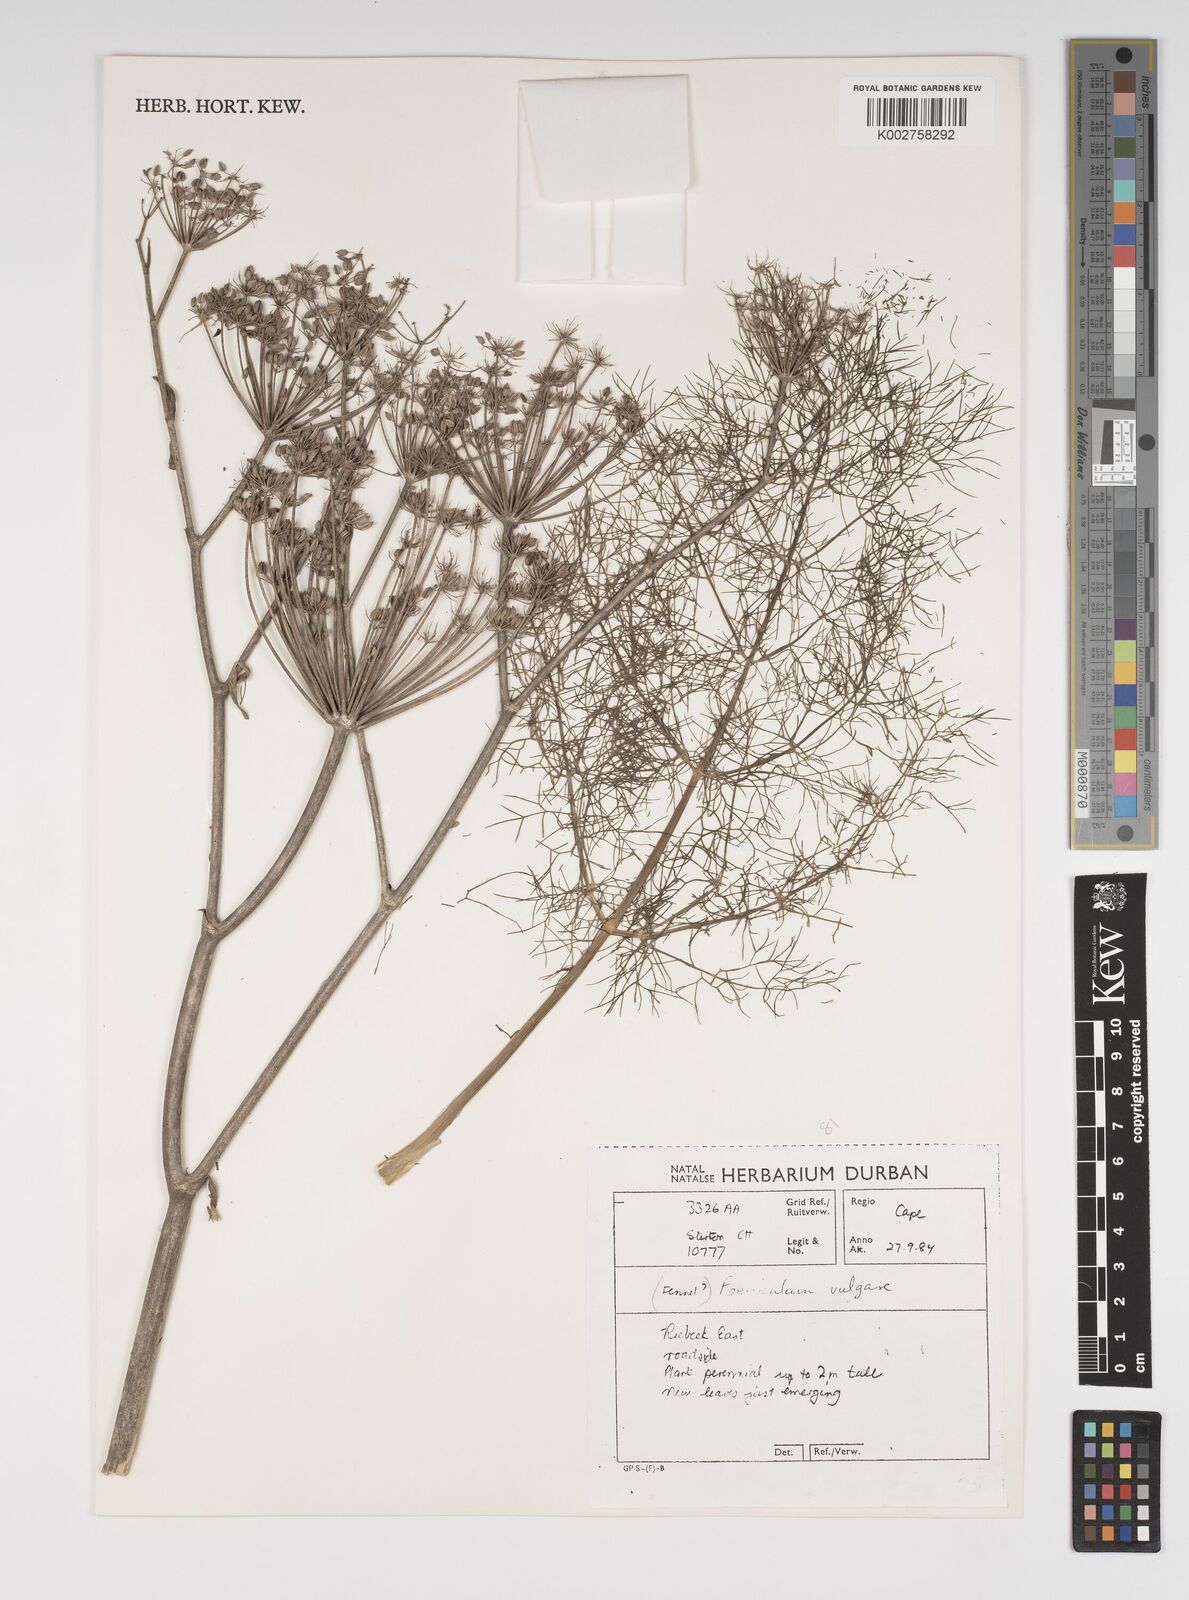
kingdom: Plantae
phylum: Tracheophyta
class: Magnoliopsida
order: Apiales
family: Apiaceae
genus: Foeniculum
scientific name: Foeniculum vulgare
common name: Fennel
